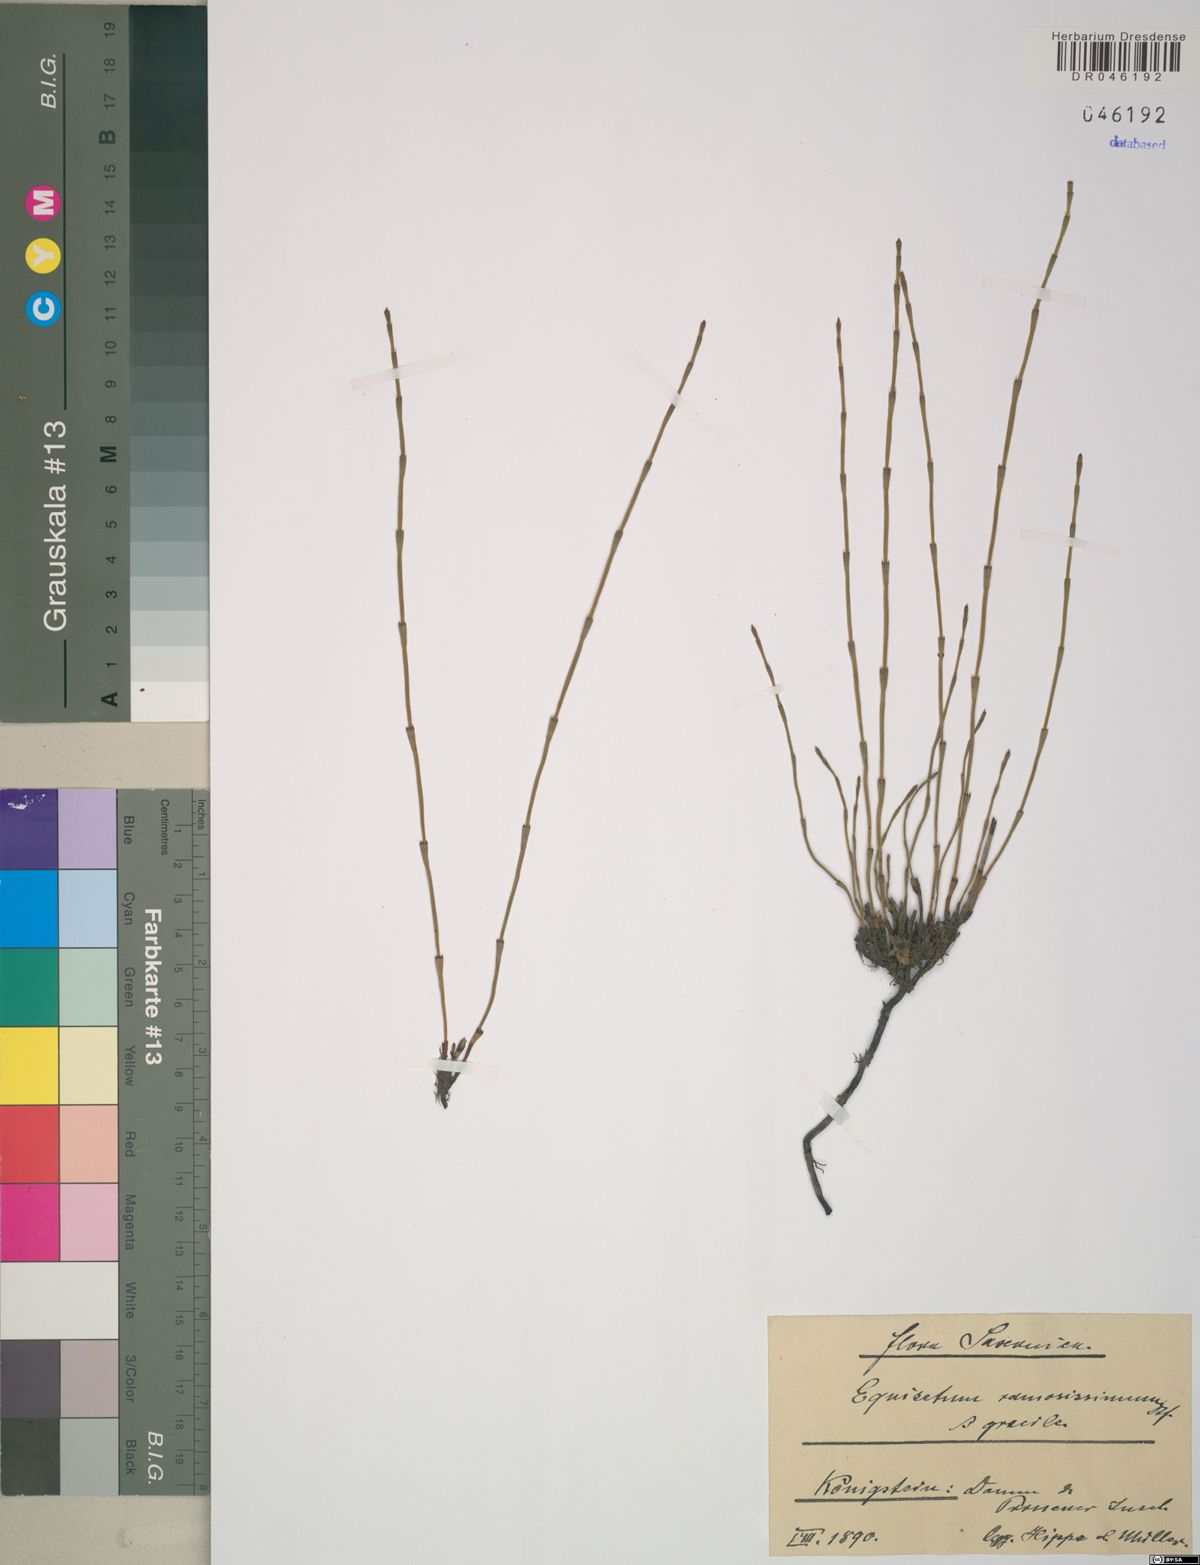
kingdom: Plantae
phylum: Tracheophyta
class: Polypodiopsida
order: Equisetales
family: Equisetaceae
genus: Equisetum
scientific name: Equisetum ramosissimum
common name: Branched horsetail
